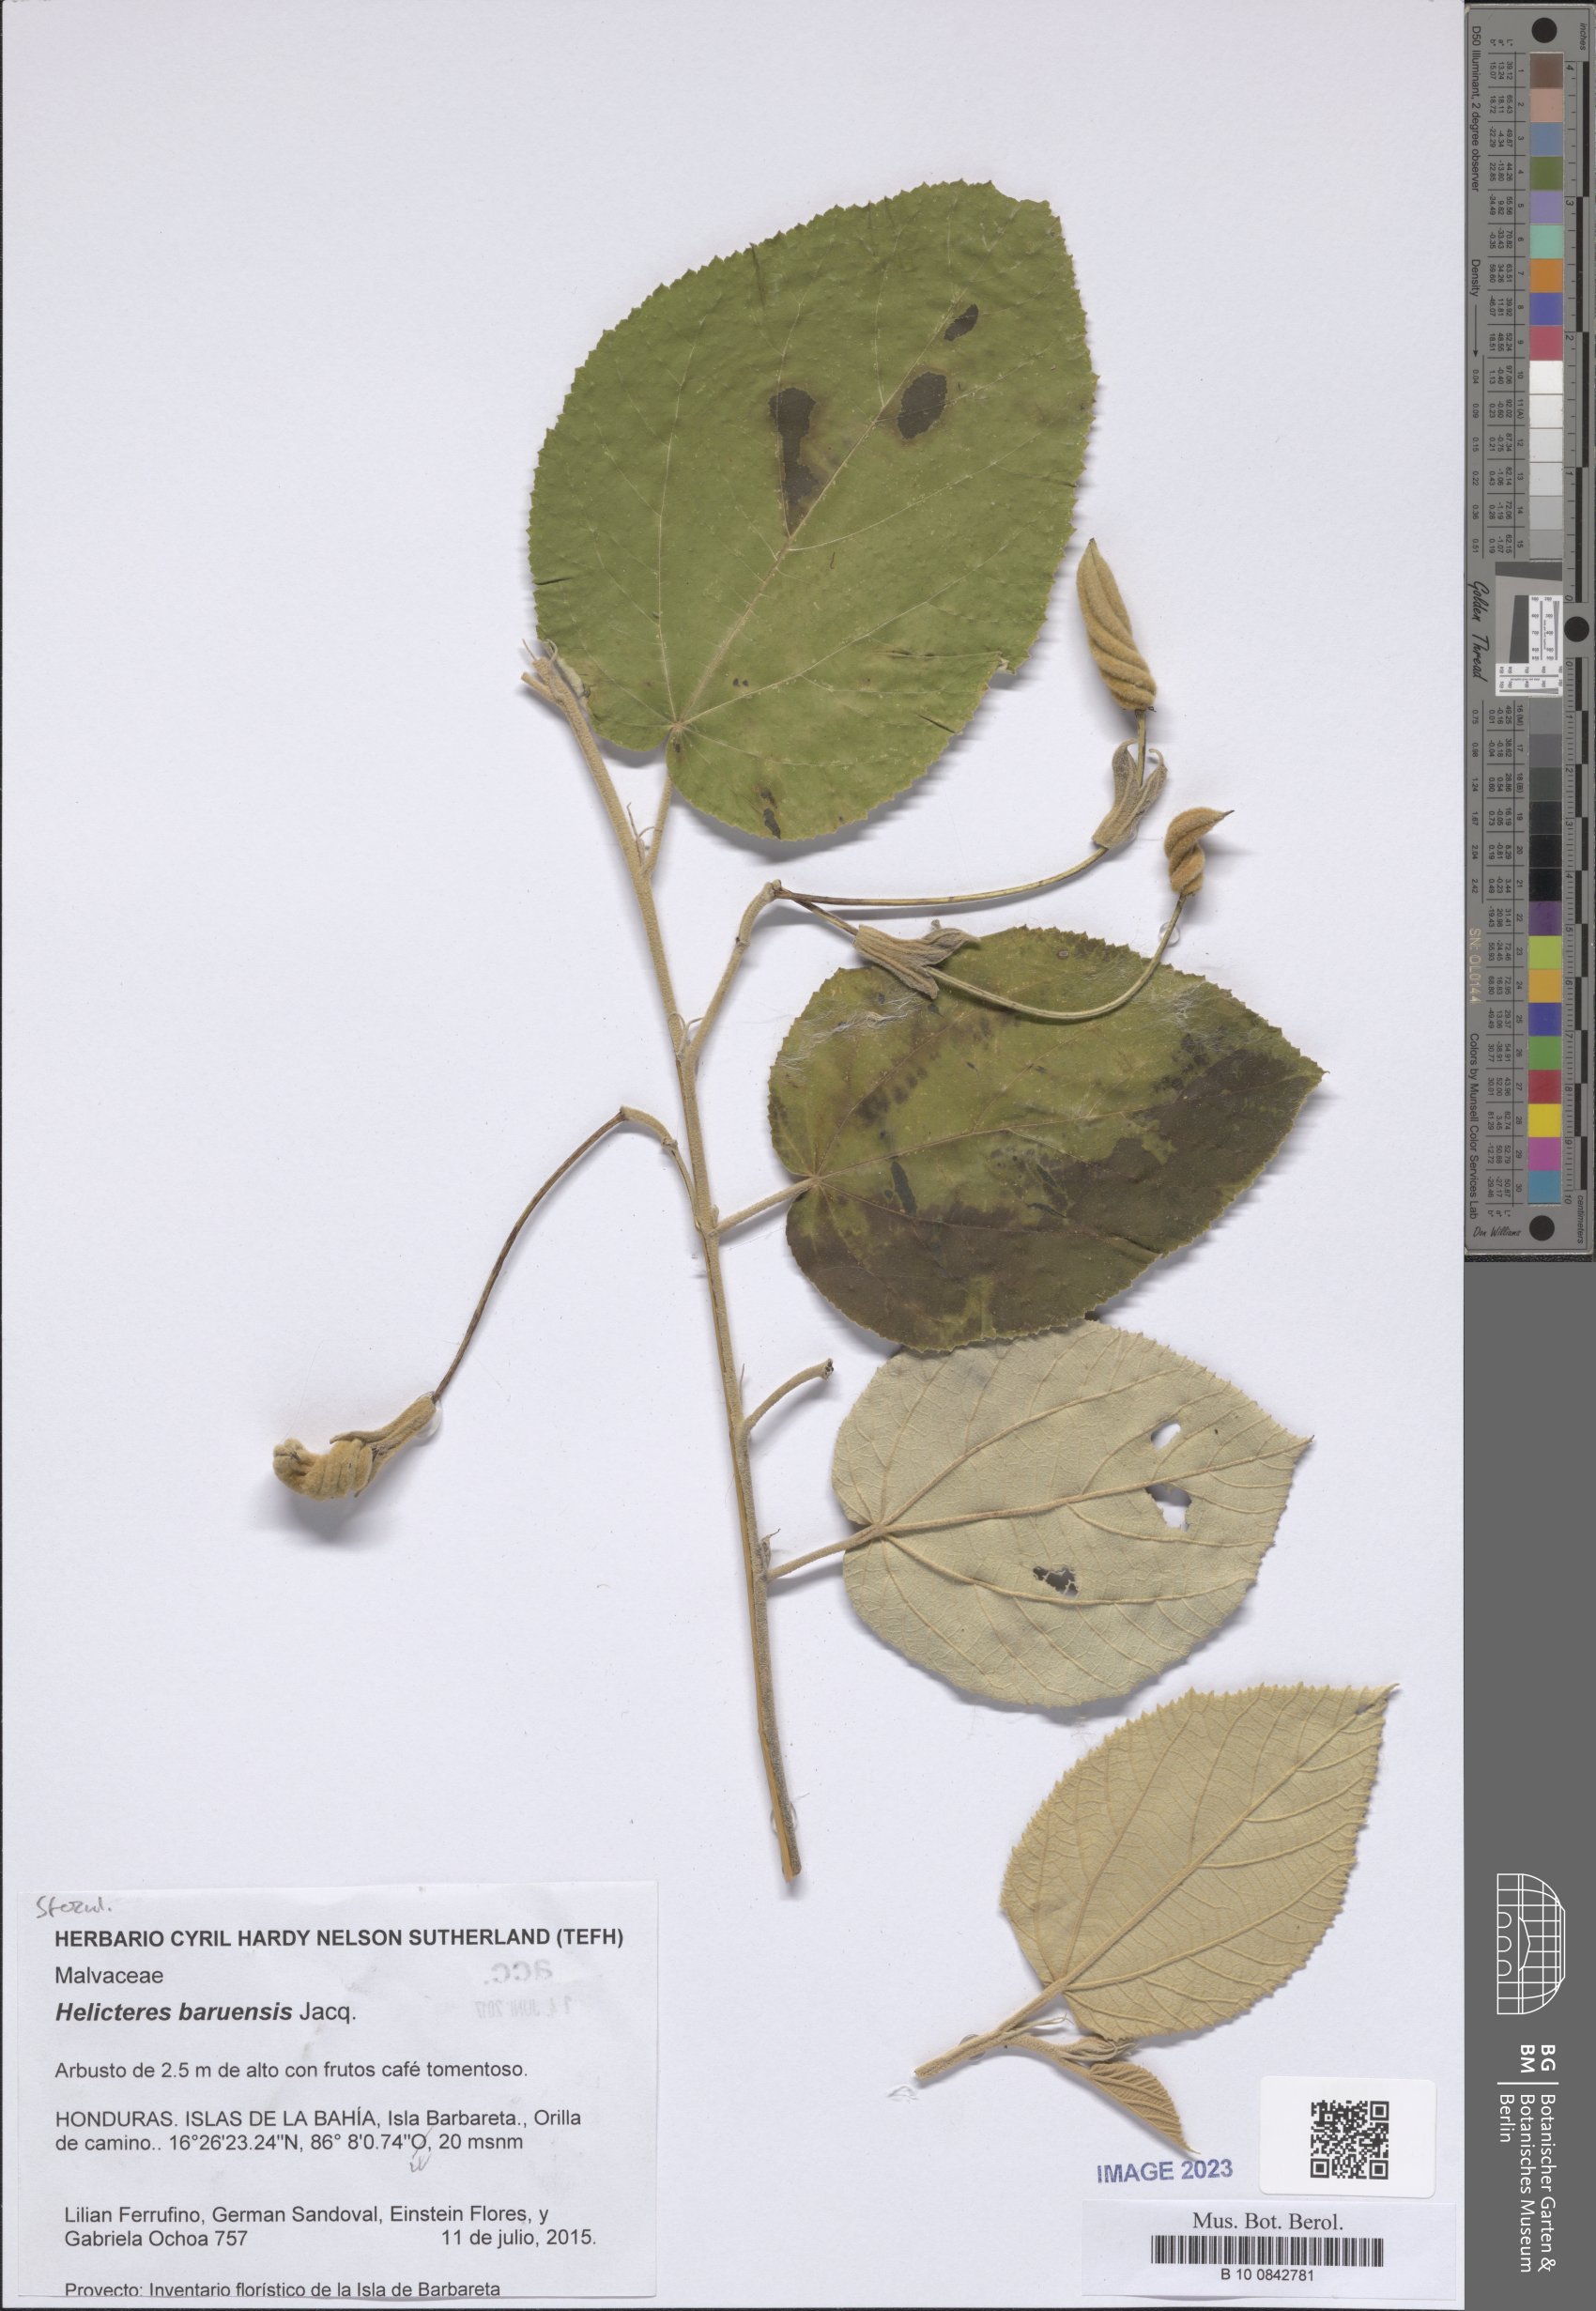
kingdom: Plantae
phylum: Tracheophyta
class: Magnoliopsida
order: Malvales
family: Malvaceae
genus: Helicteres
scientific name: Helicteres baruensis
